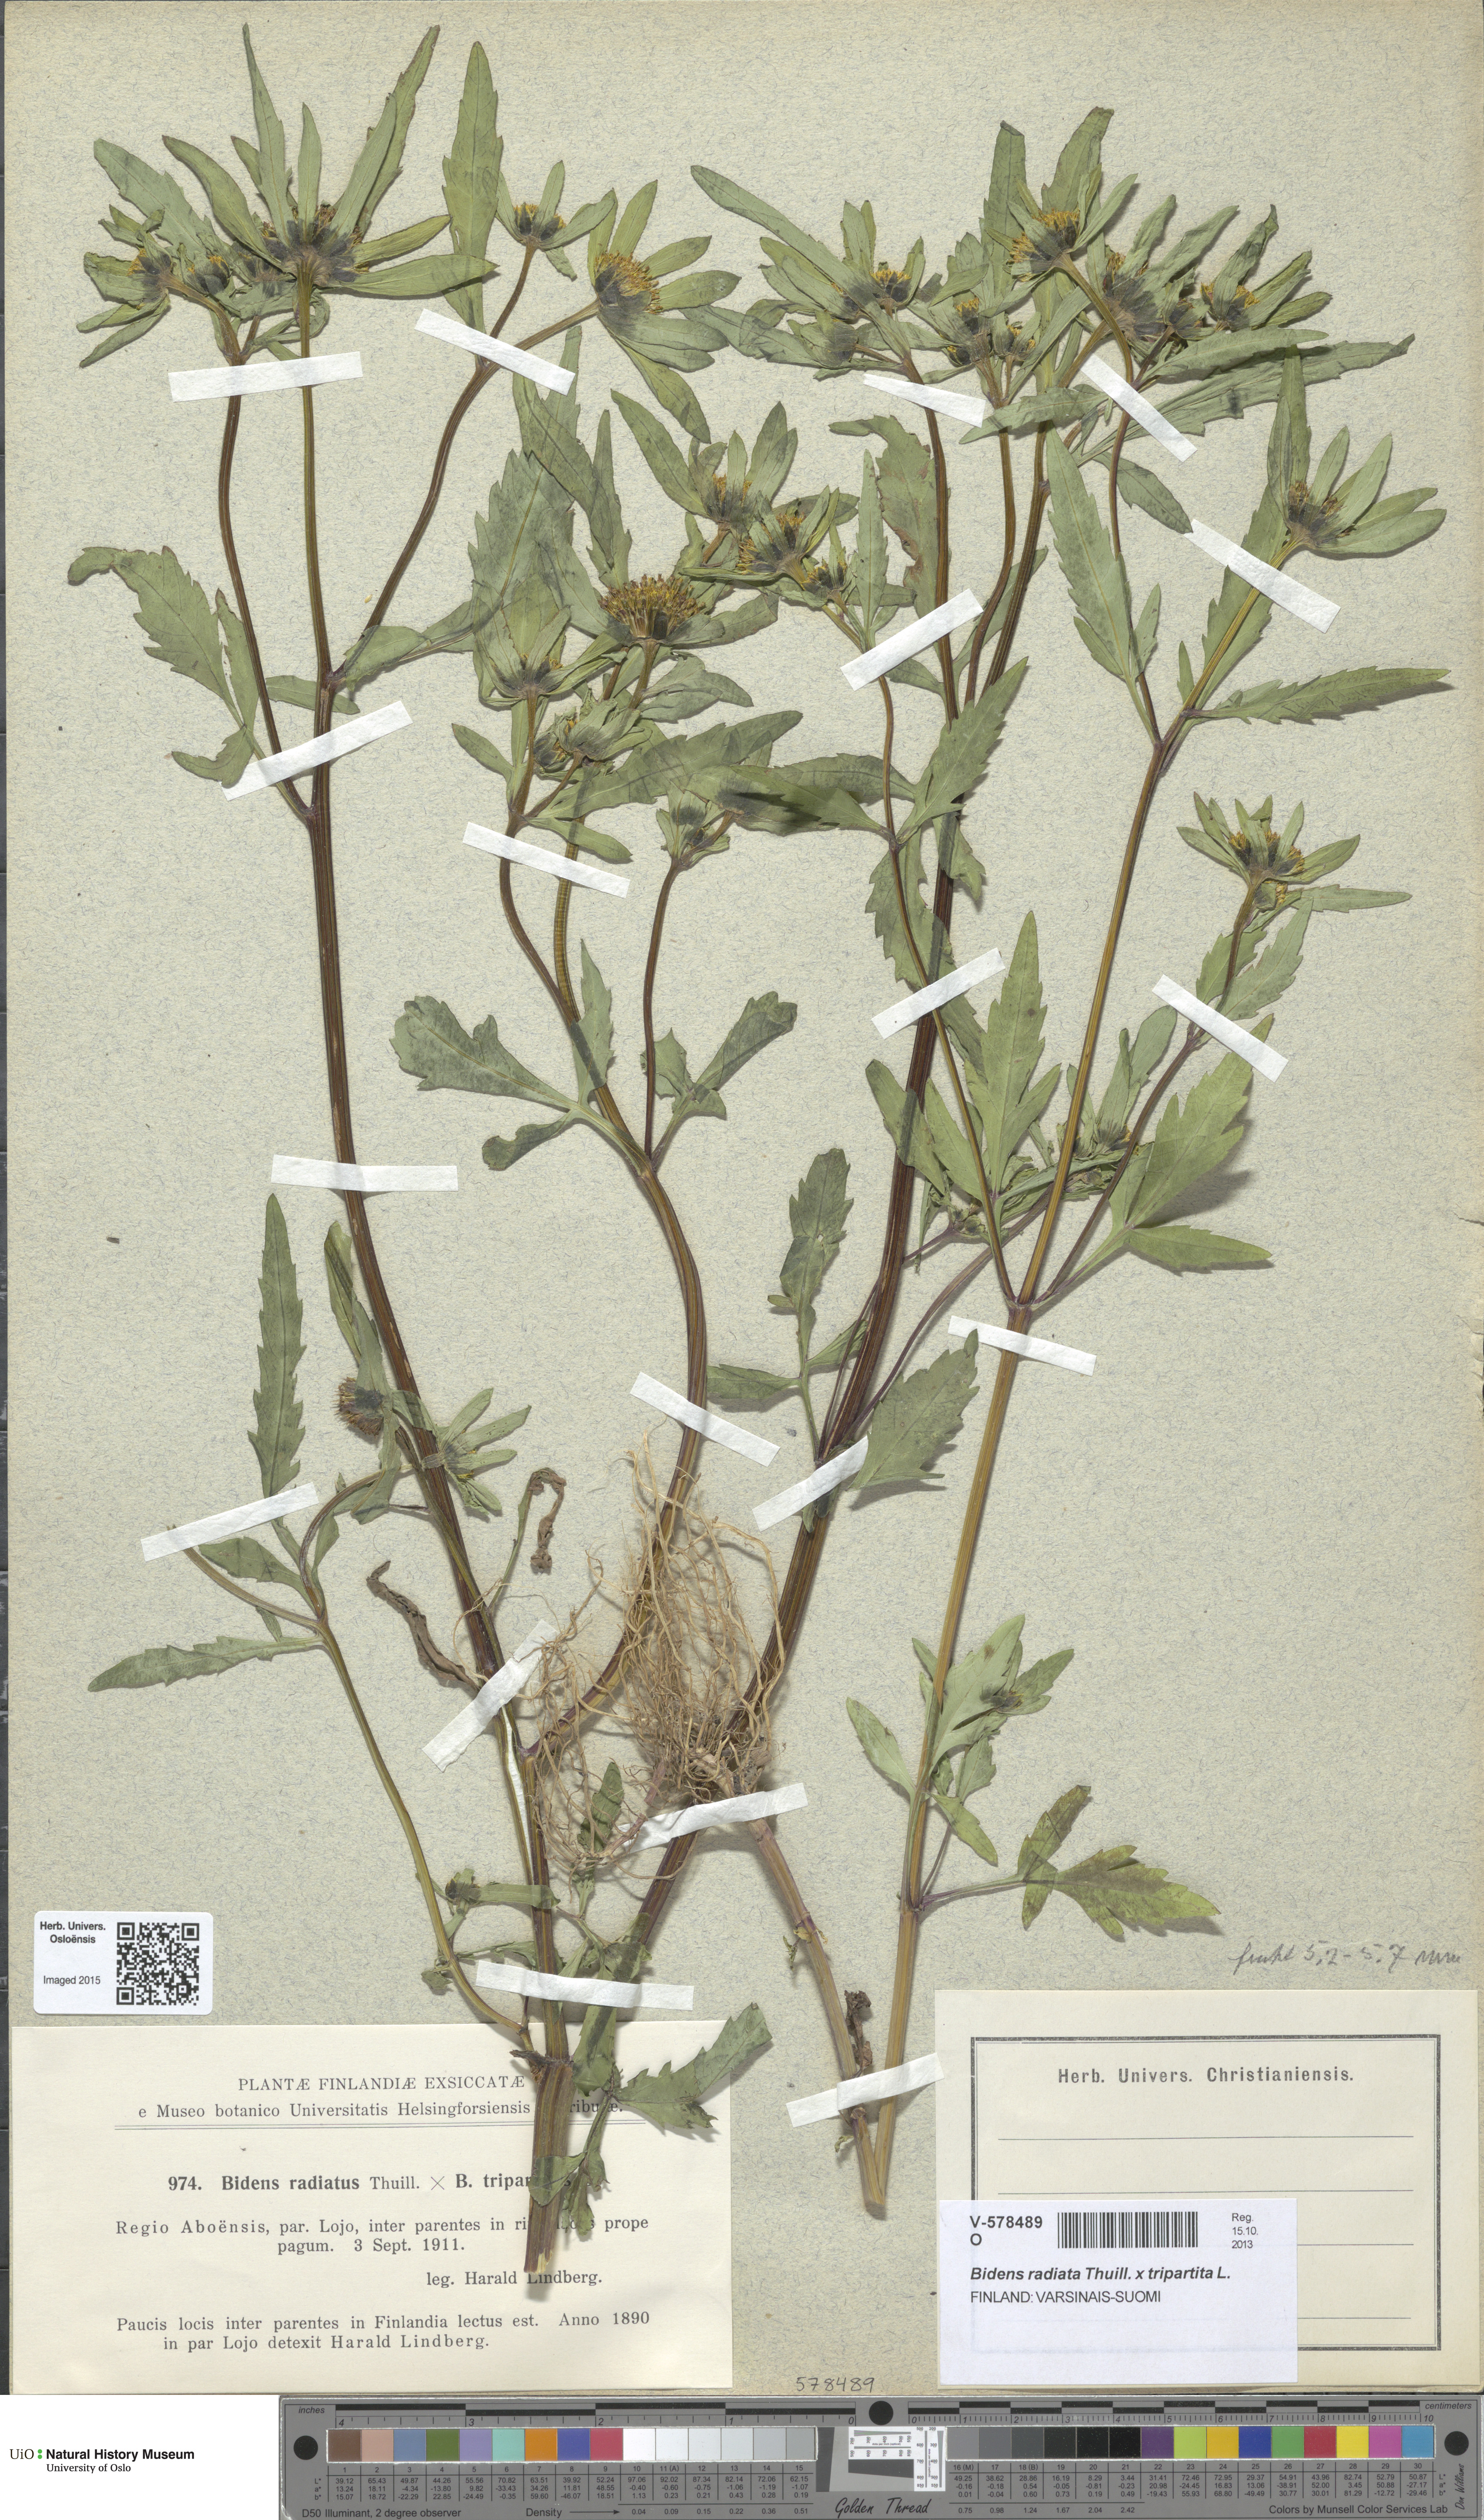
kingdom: Plantae
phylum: Tracheophyta
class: Magnoliopsida
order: Asterales
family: Asteraceae
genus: Bidens
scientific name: Bidens
